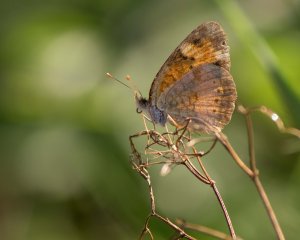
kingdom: Animalia
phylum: Arthropoda
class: Insecta
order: Lepidoptera
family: Nymphalidae
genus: Phyciodes
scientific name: Phyciodes tharos
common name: Northern Crescent
